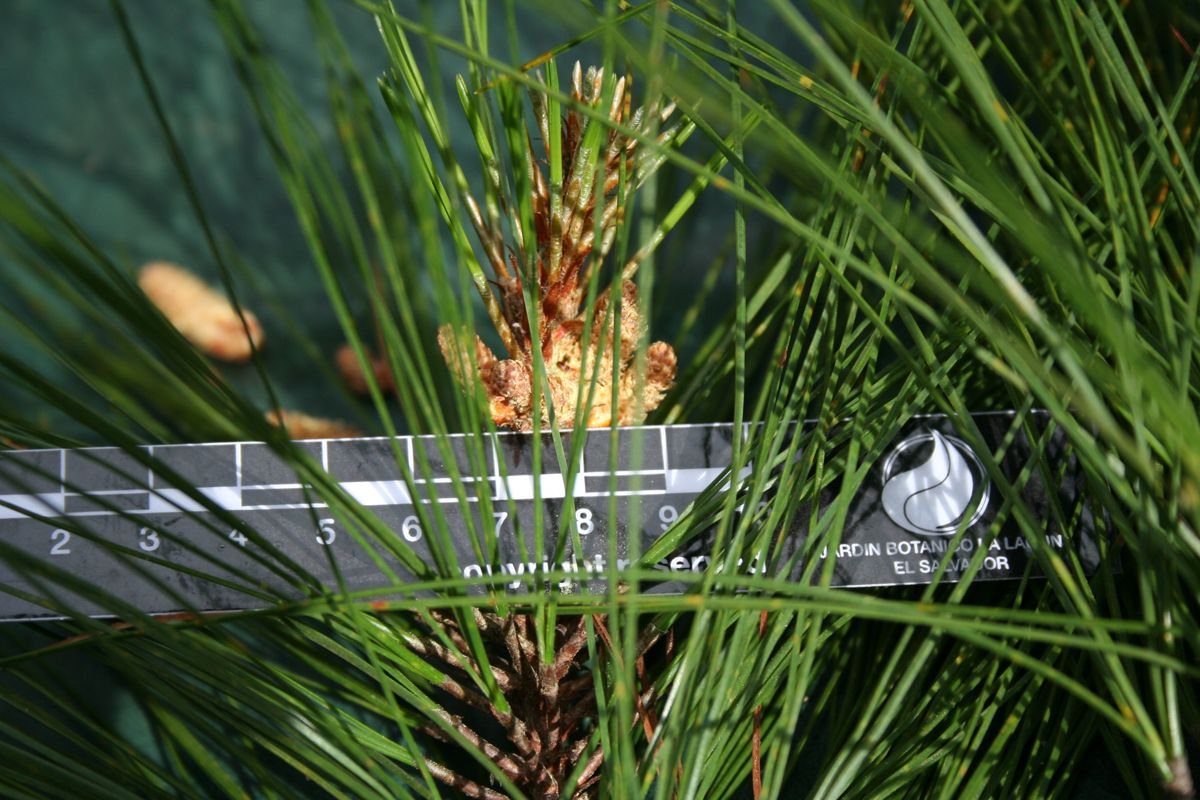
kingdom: Plantae
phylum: Tracheophyta
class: Pinopsida
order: Pinales
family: Pinaceae
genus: Pinus
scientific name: Pinus tecunumanii
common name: Schwerdtfeger's pine
